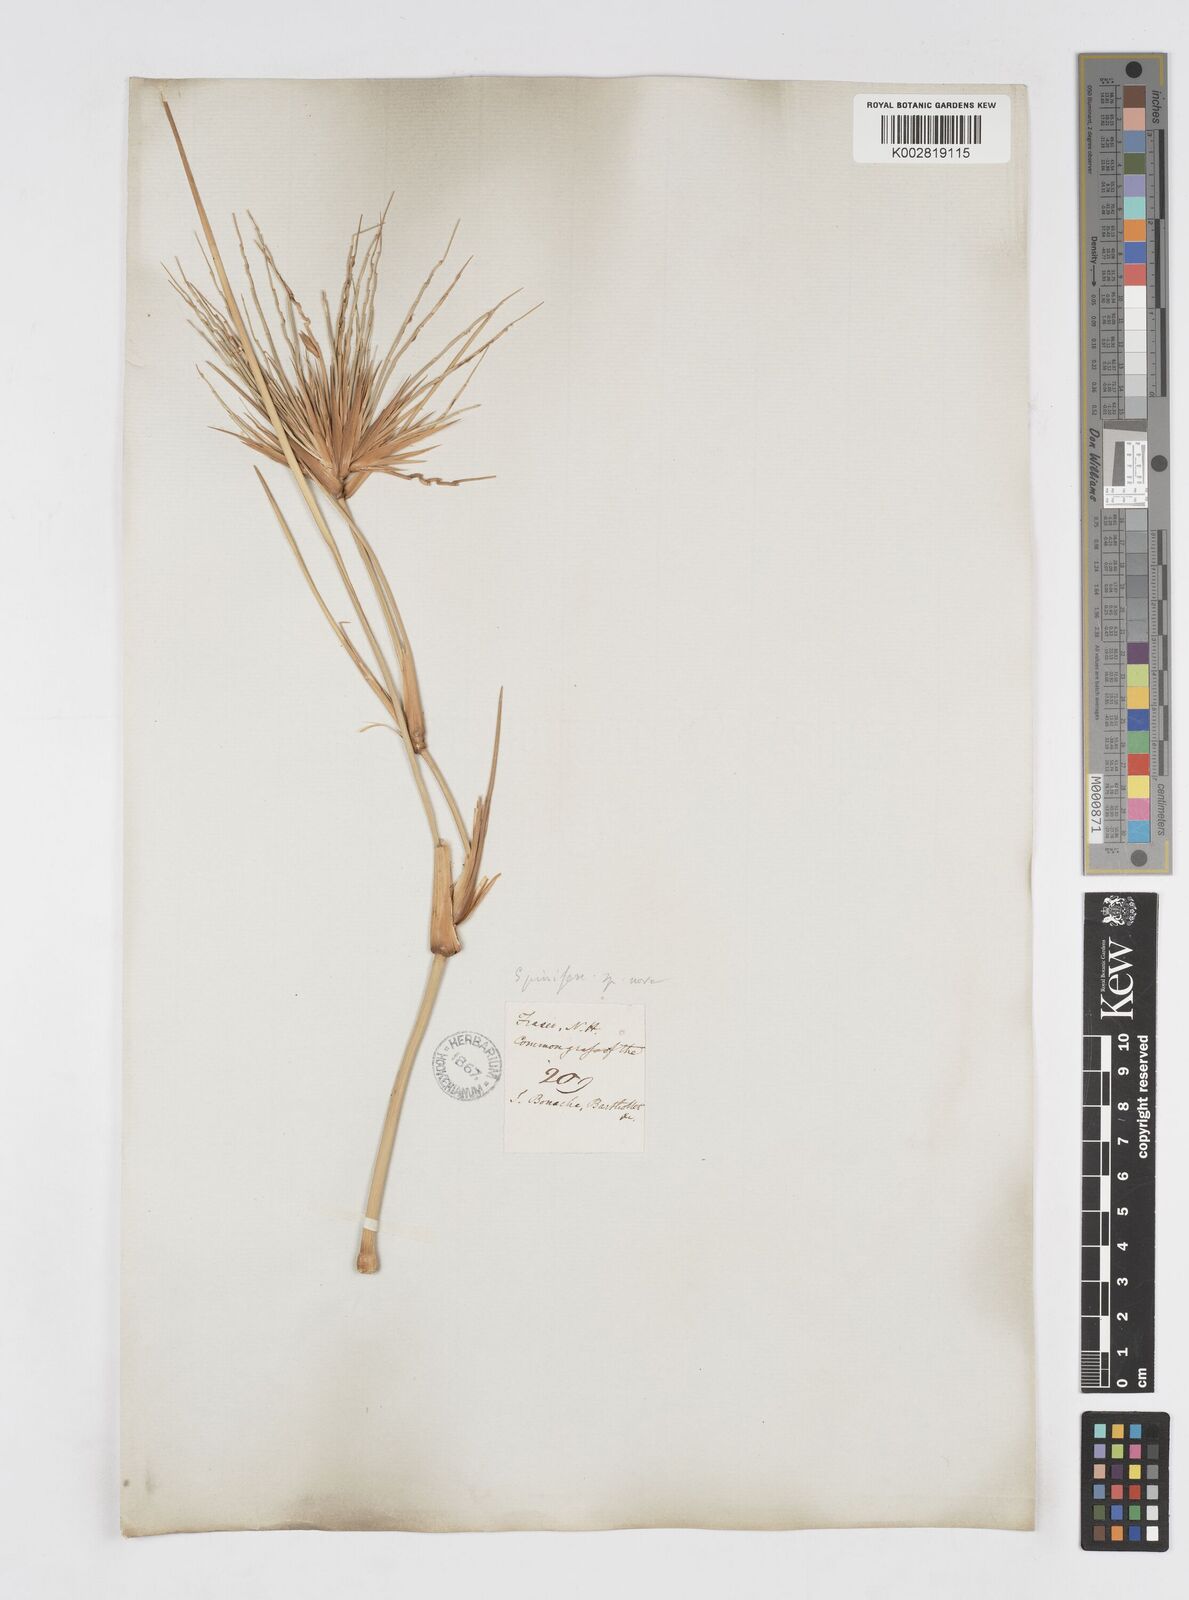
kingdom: Plantae
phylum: Tracheophyta
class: Liliopsida
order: Poales
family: Poaceae
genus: Spinifex
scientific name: Spinifex longifolius
